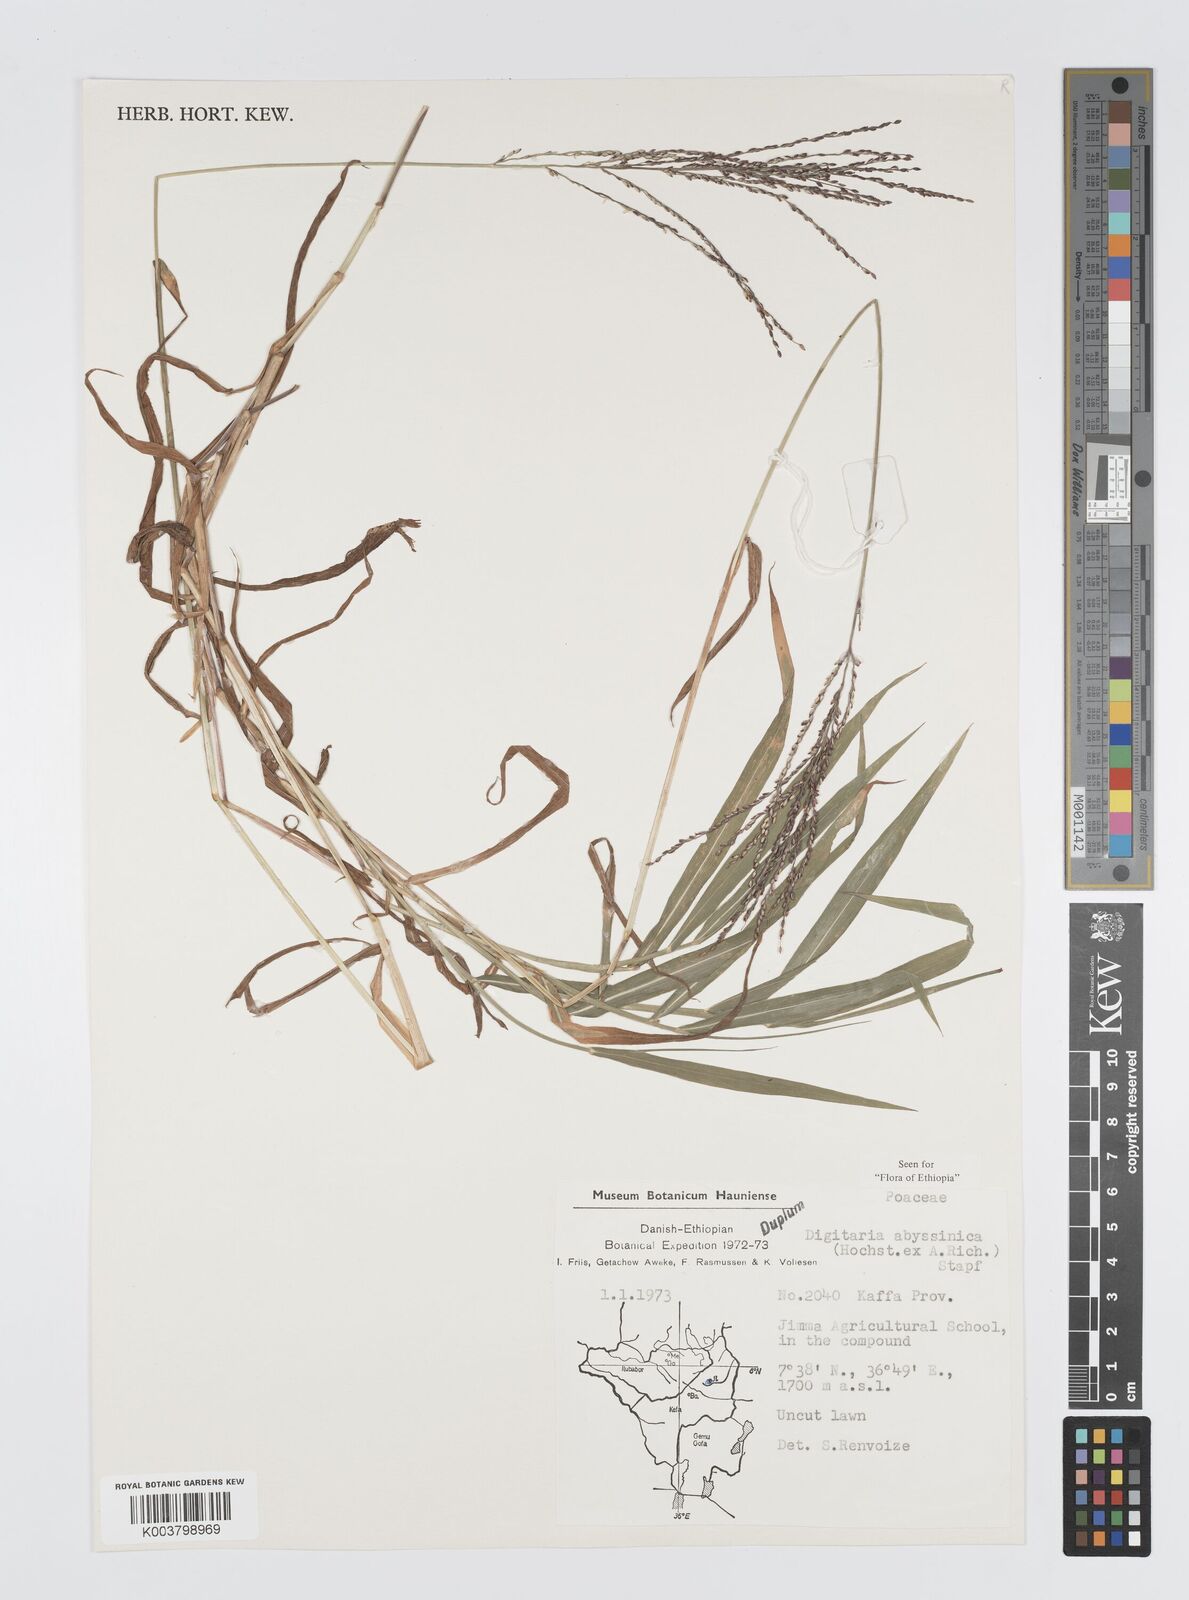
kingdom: Plantae
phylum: Tracheophyta
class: Liliopsida
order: Poales
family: Poaceae
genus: Digitaria
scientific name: Digitaria abyssinica
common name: African couchgrass
